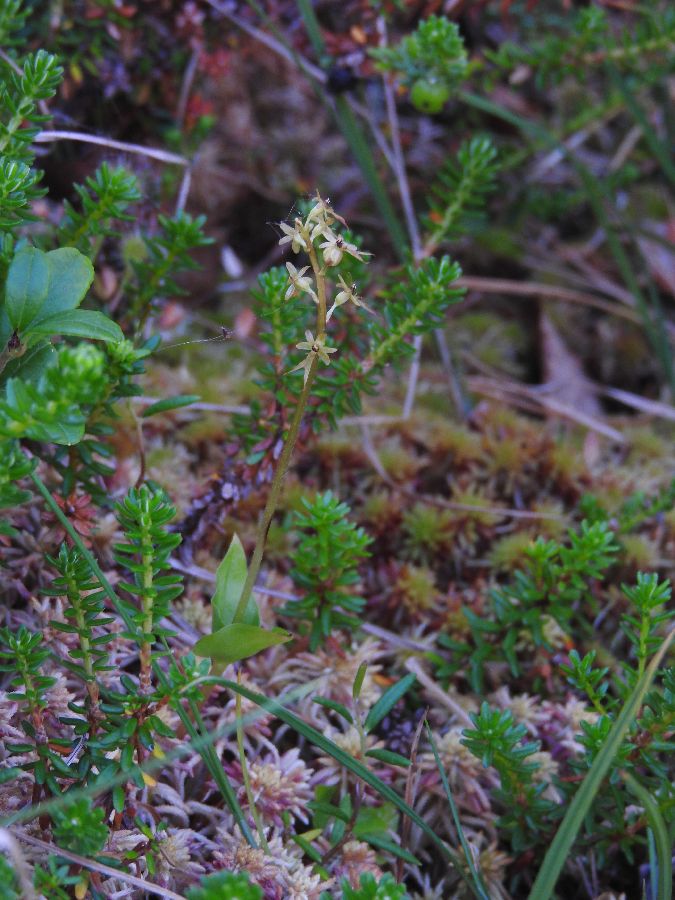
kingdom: Plantae
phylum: Tracheophyta
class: Liliopsida
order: Asparagales
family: Orchidaceae
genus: Neottia
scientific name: Neottia cordata
